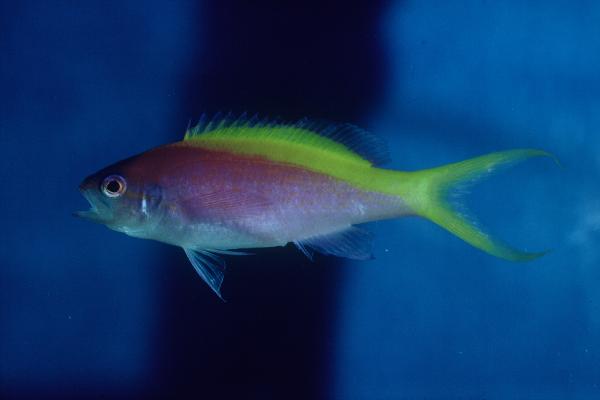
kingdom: Animalia
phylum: Chordata
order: Perciformes
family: Serranidae
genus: Pseudanthias
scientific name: Pseudanthias evansi
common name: Goldback anthias
